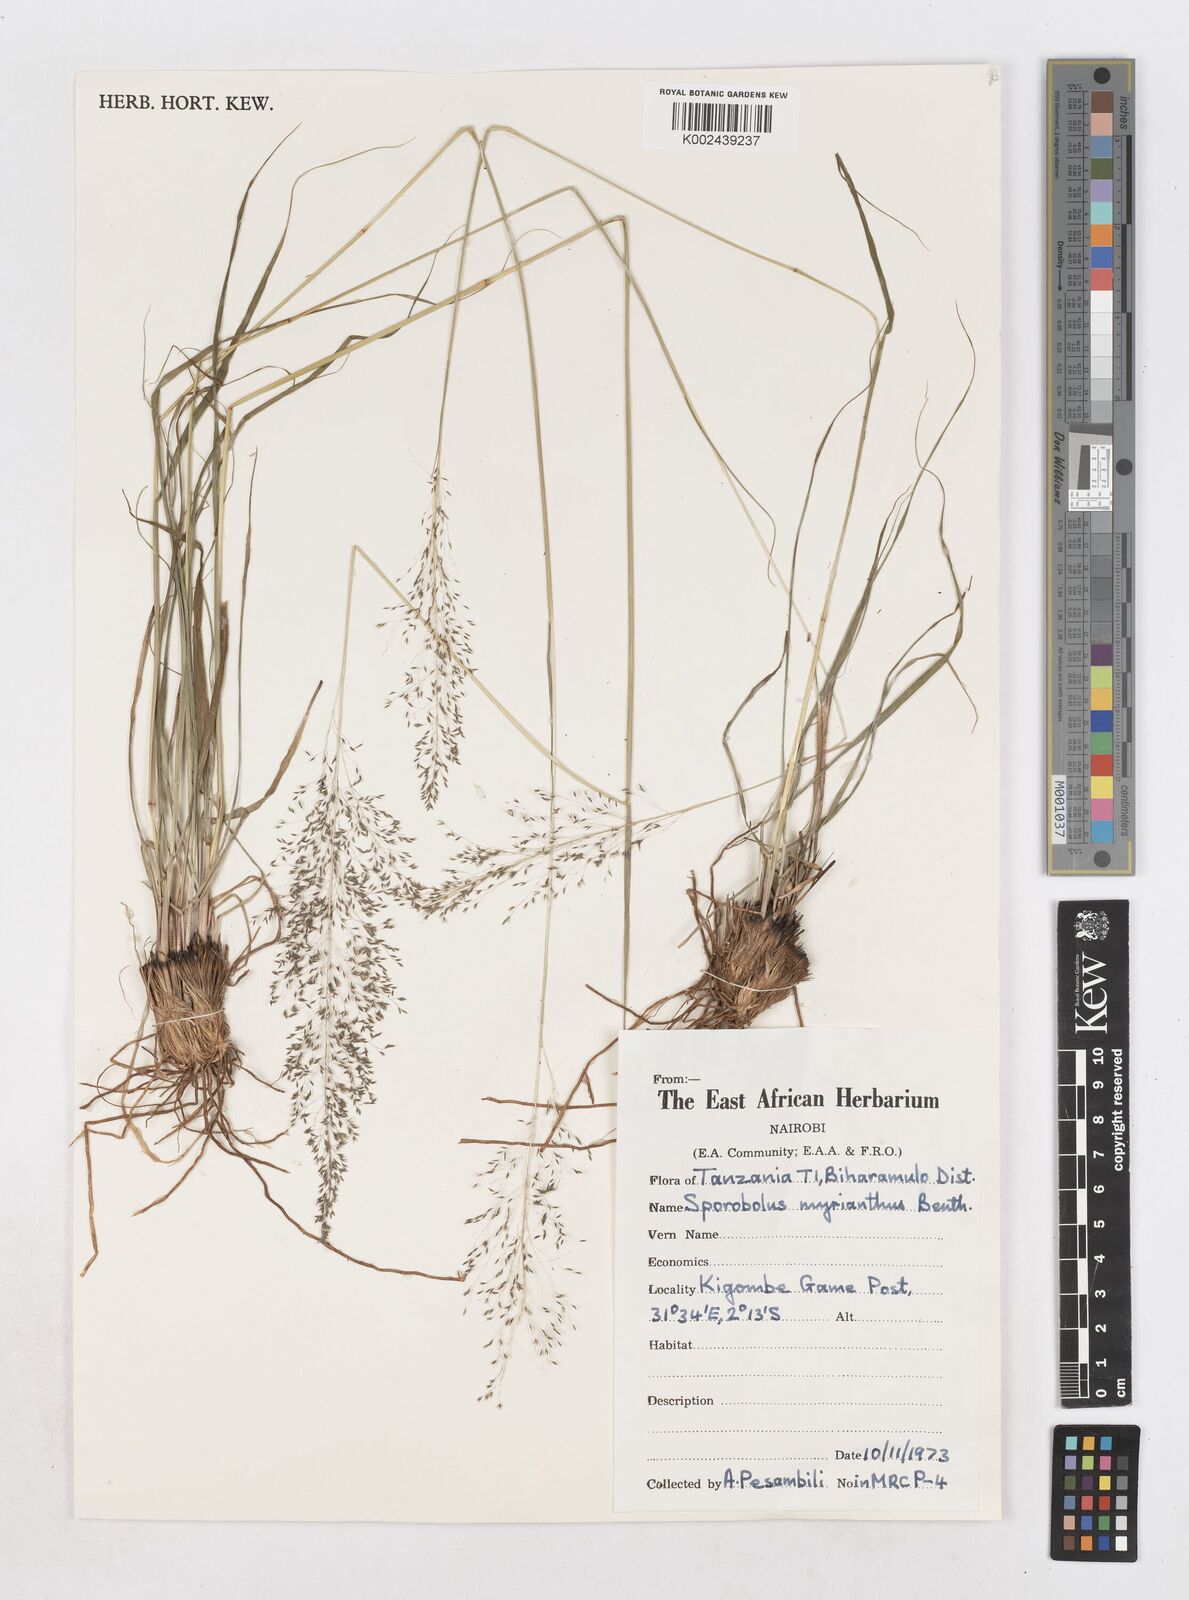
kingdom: Plantae
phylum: Tracheophyta
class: Liliopsida
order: Poales
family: Poaceae
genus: Sporobolus
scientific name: Sporobolus myrianthus
